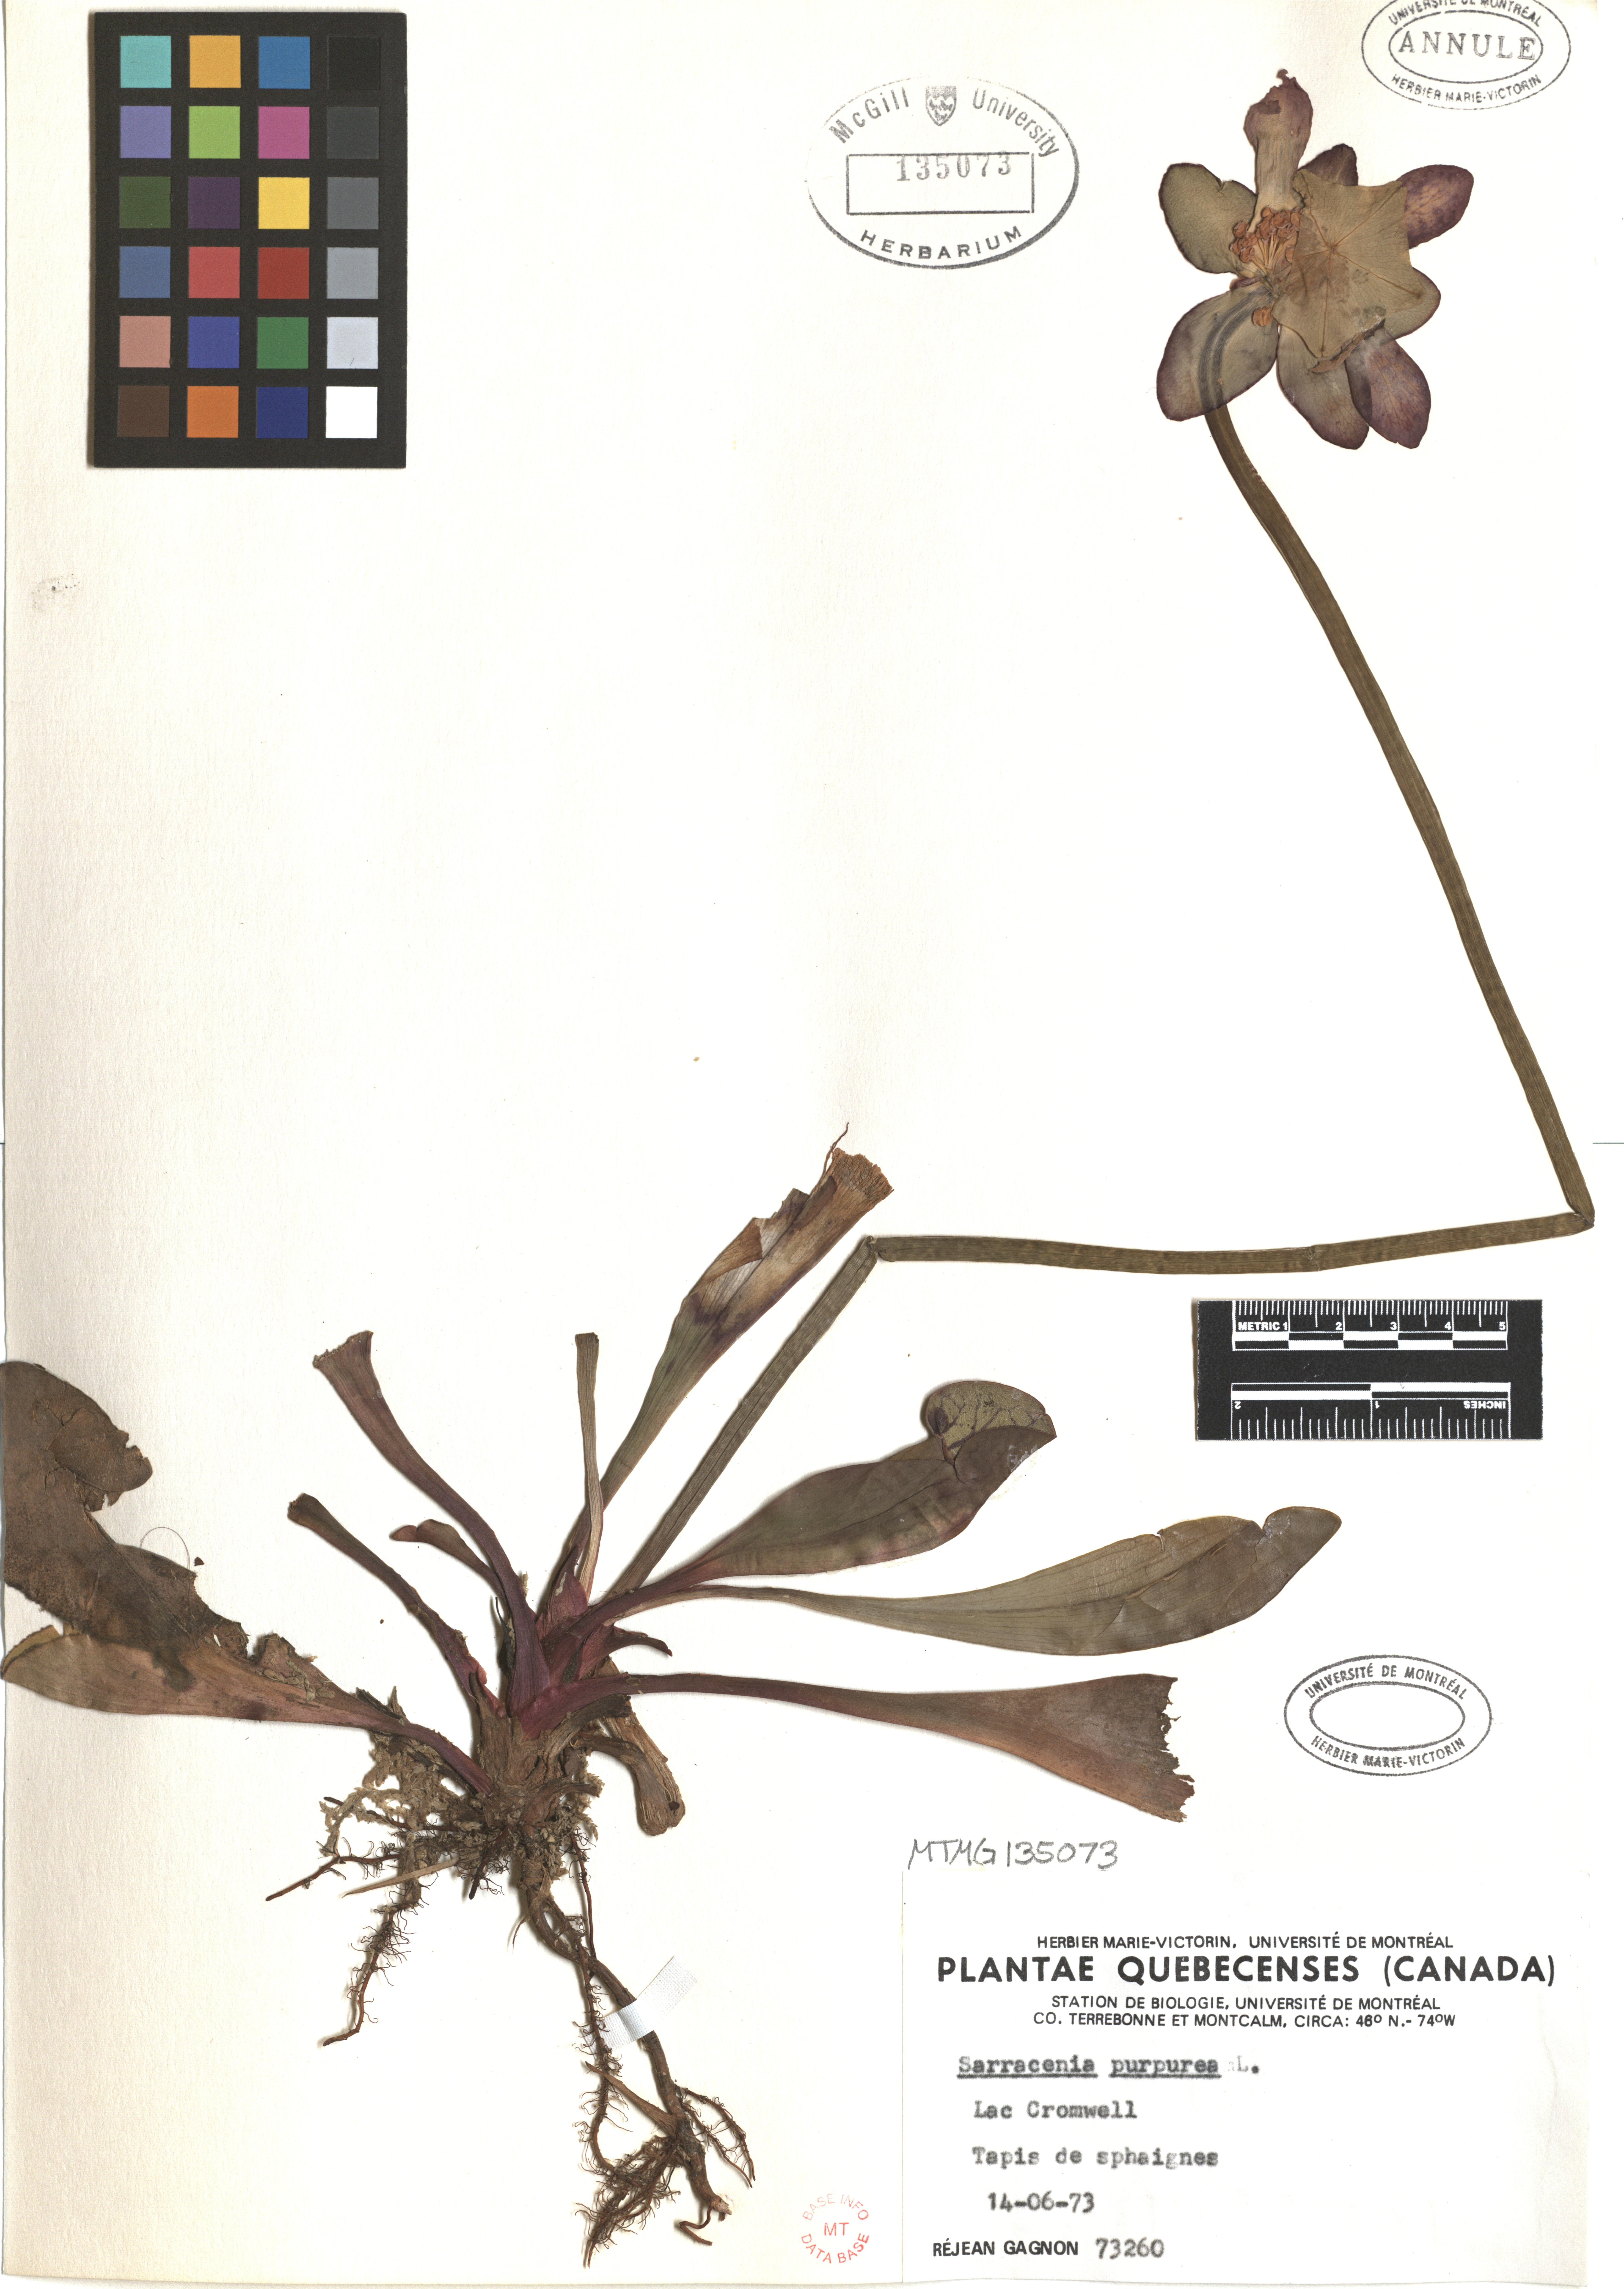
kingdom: Plantae
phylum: Tracheophyta
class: Magnoliopsida
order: Ericales
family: Sarraceniaceae
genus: Sarracenia
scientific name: Sarracenia purpurea
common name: Pitcherplant
